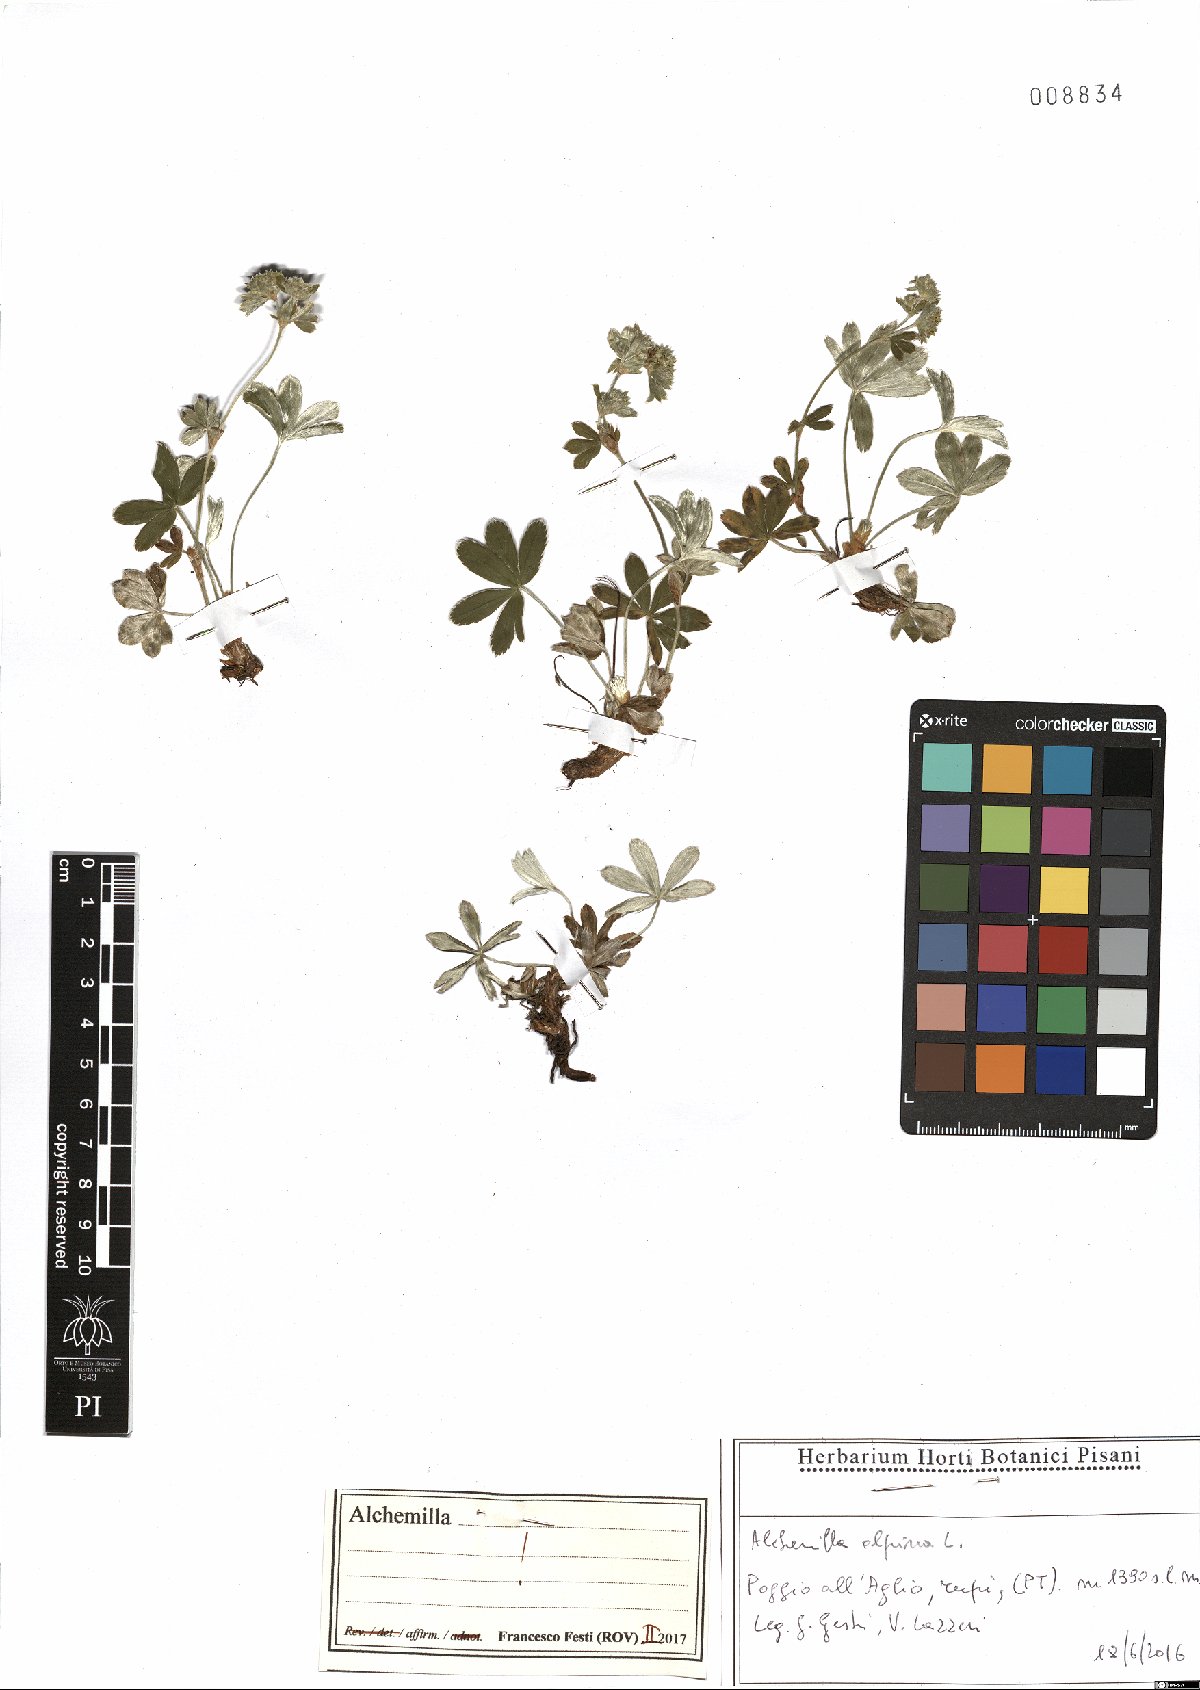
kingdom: Plantae
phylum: Tracheophyta
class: Magnoliopsida
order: Rosales
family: Rosaceae
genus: Alchemilla
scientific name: Alchemilla alpina
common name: Alpine lady's-mantle
